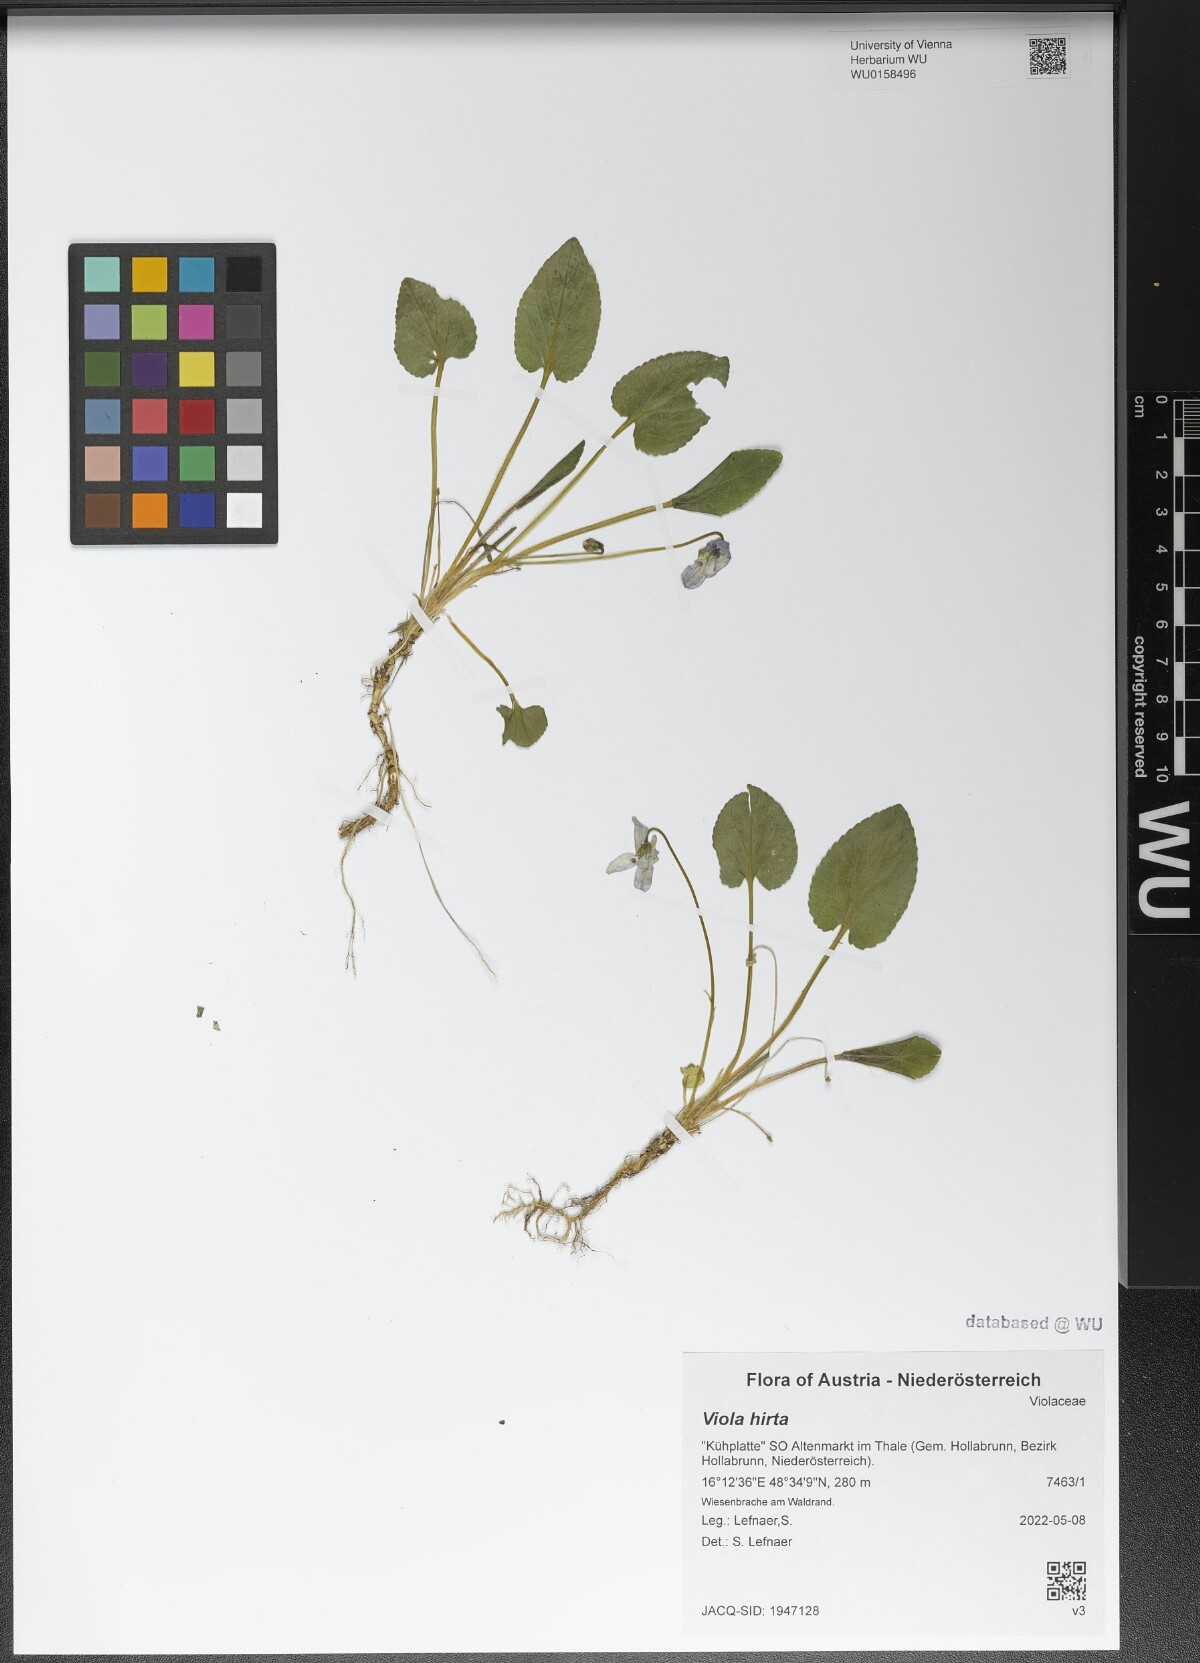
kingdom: Plantae
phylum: Tracheophyta
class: Magnoliopsida
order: Malpighiales
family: Violaceae
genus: Viola
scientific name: Viola hirta
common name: Hairy violet
